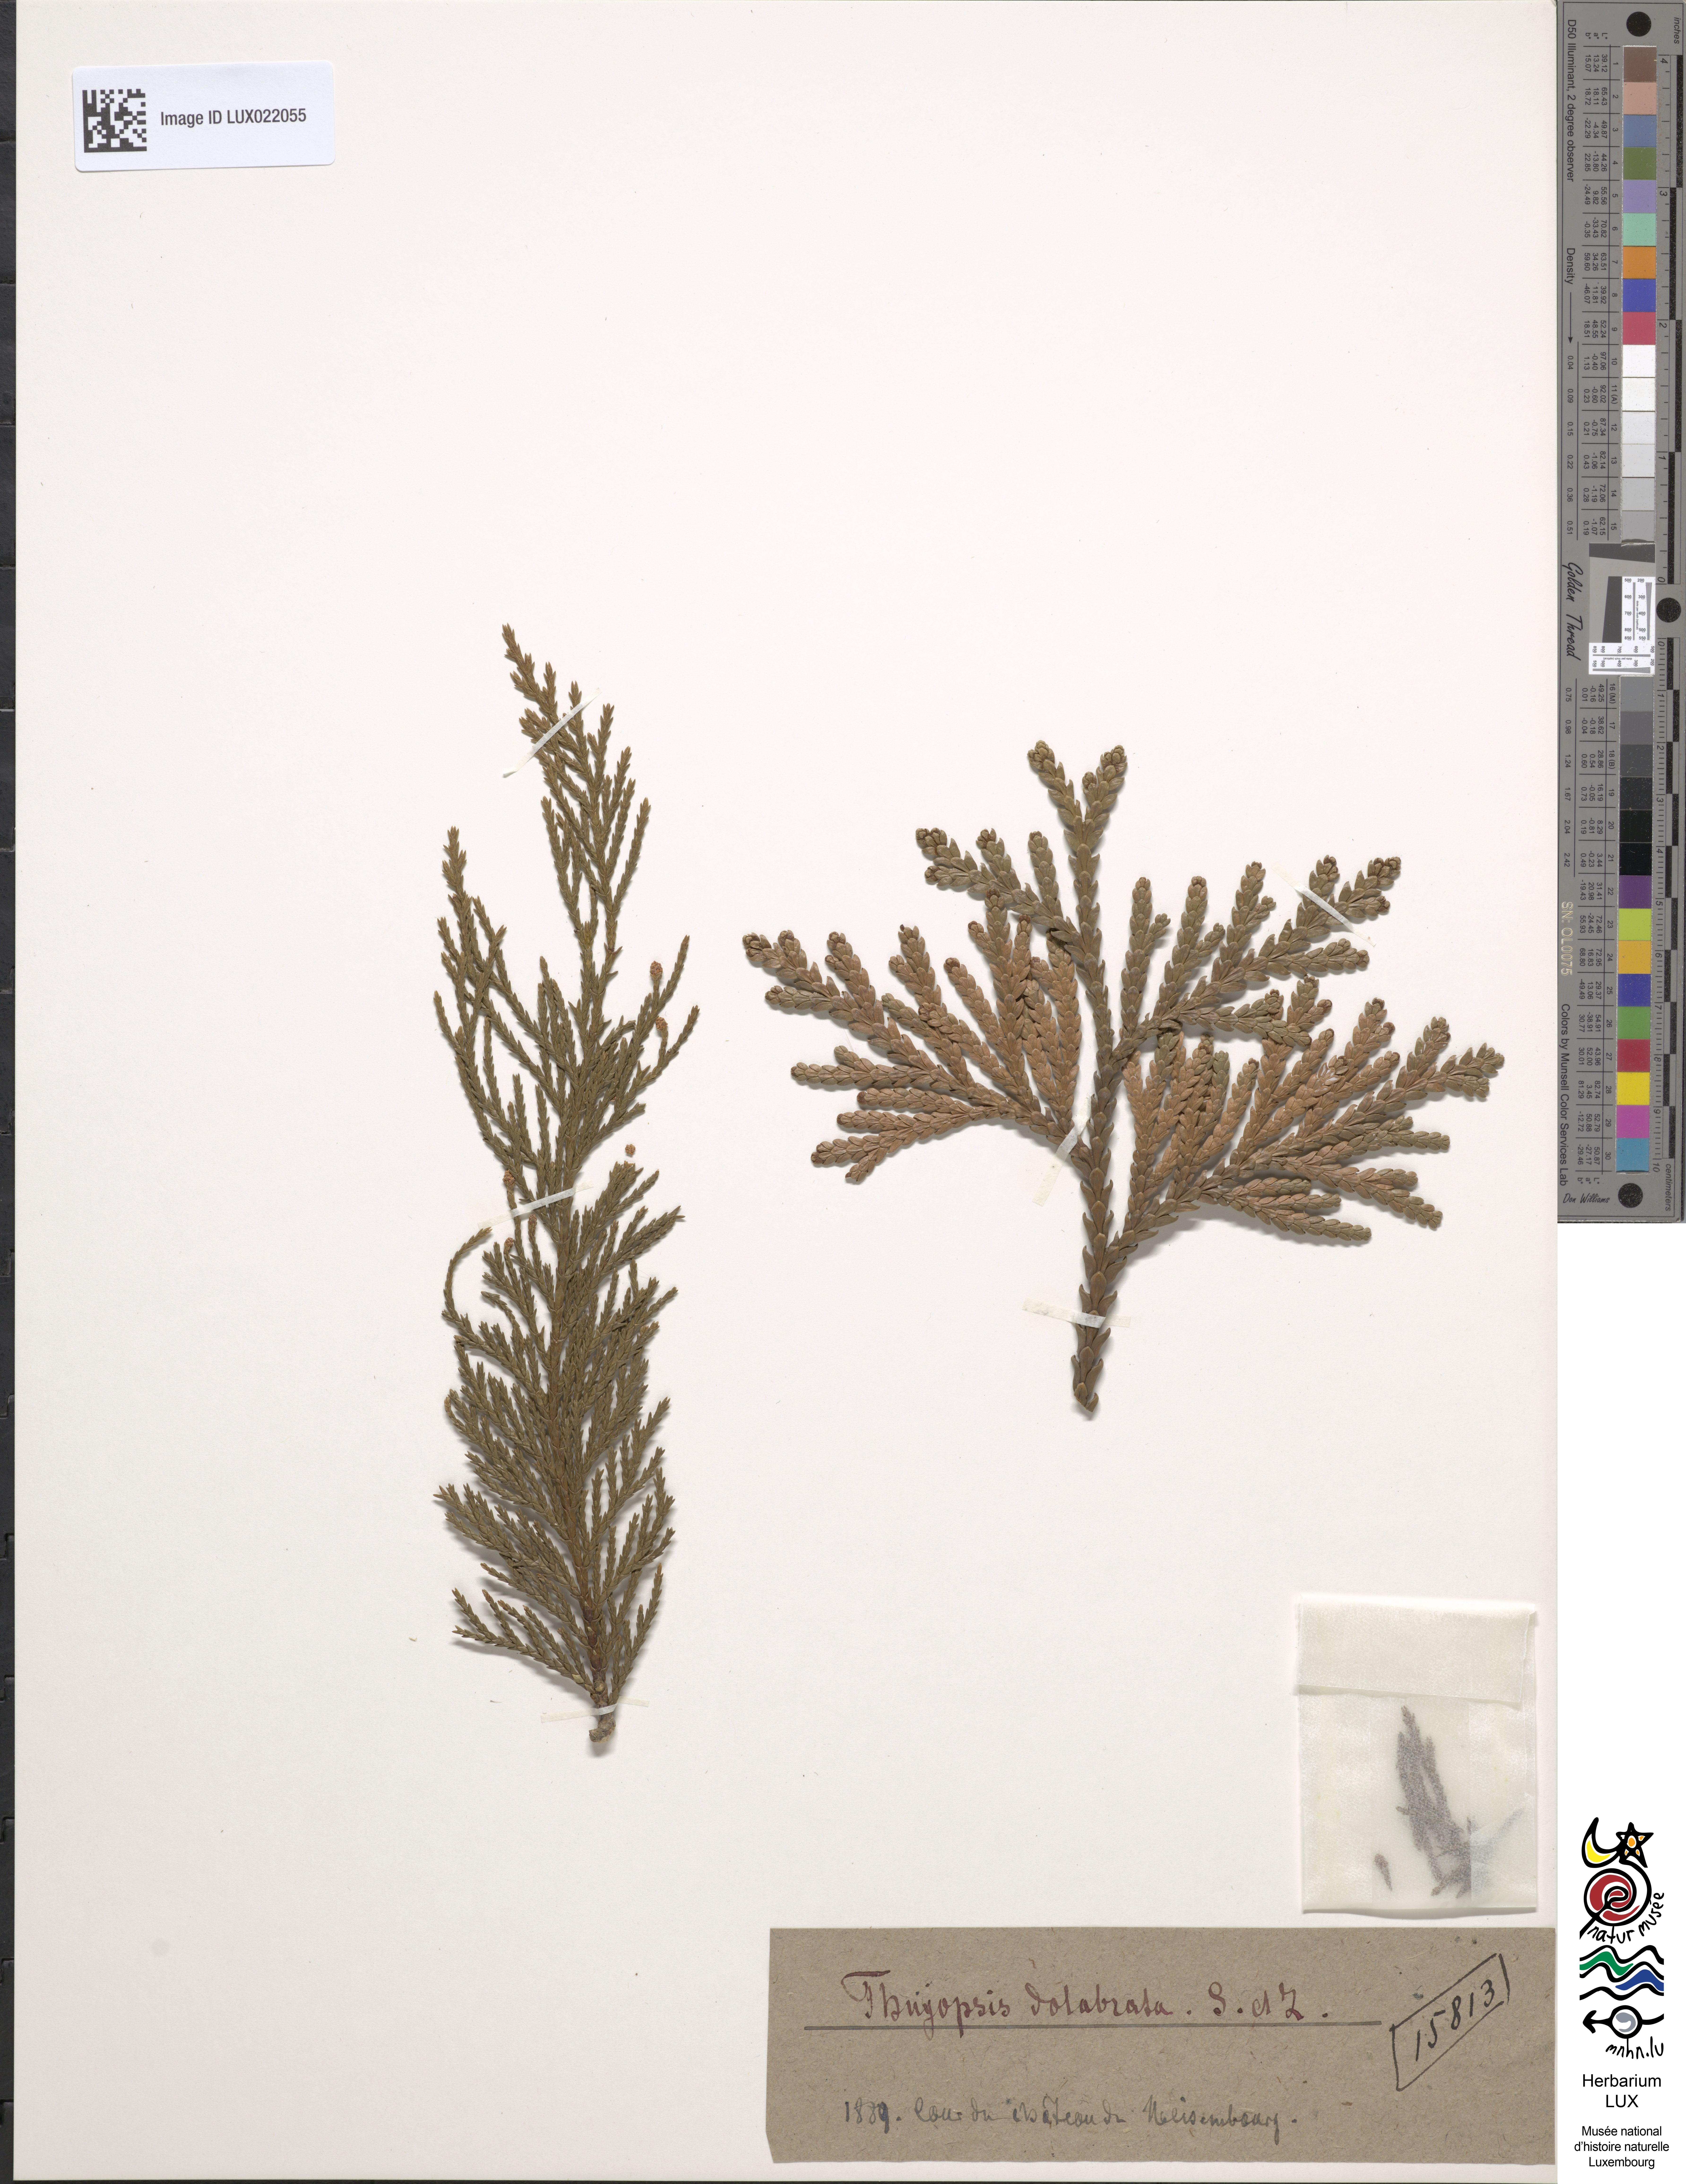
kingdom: Plantae
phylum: Tracheophyta
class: Pinopsida
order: Pinales
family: Cupressaceae
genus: Thujopsis
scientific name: Thujopsis dolabrata
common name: Hiba
